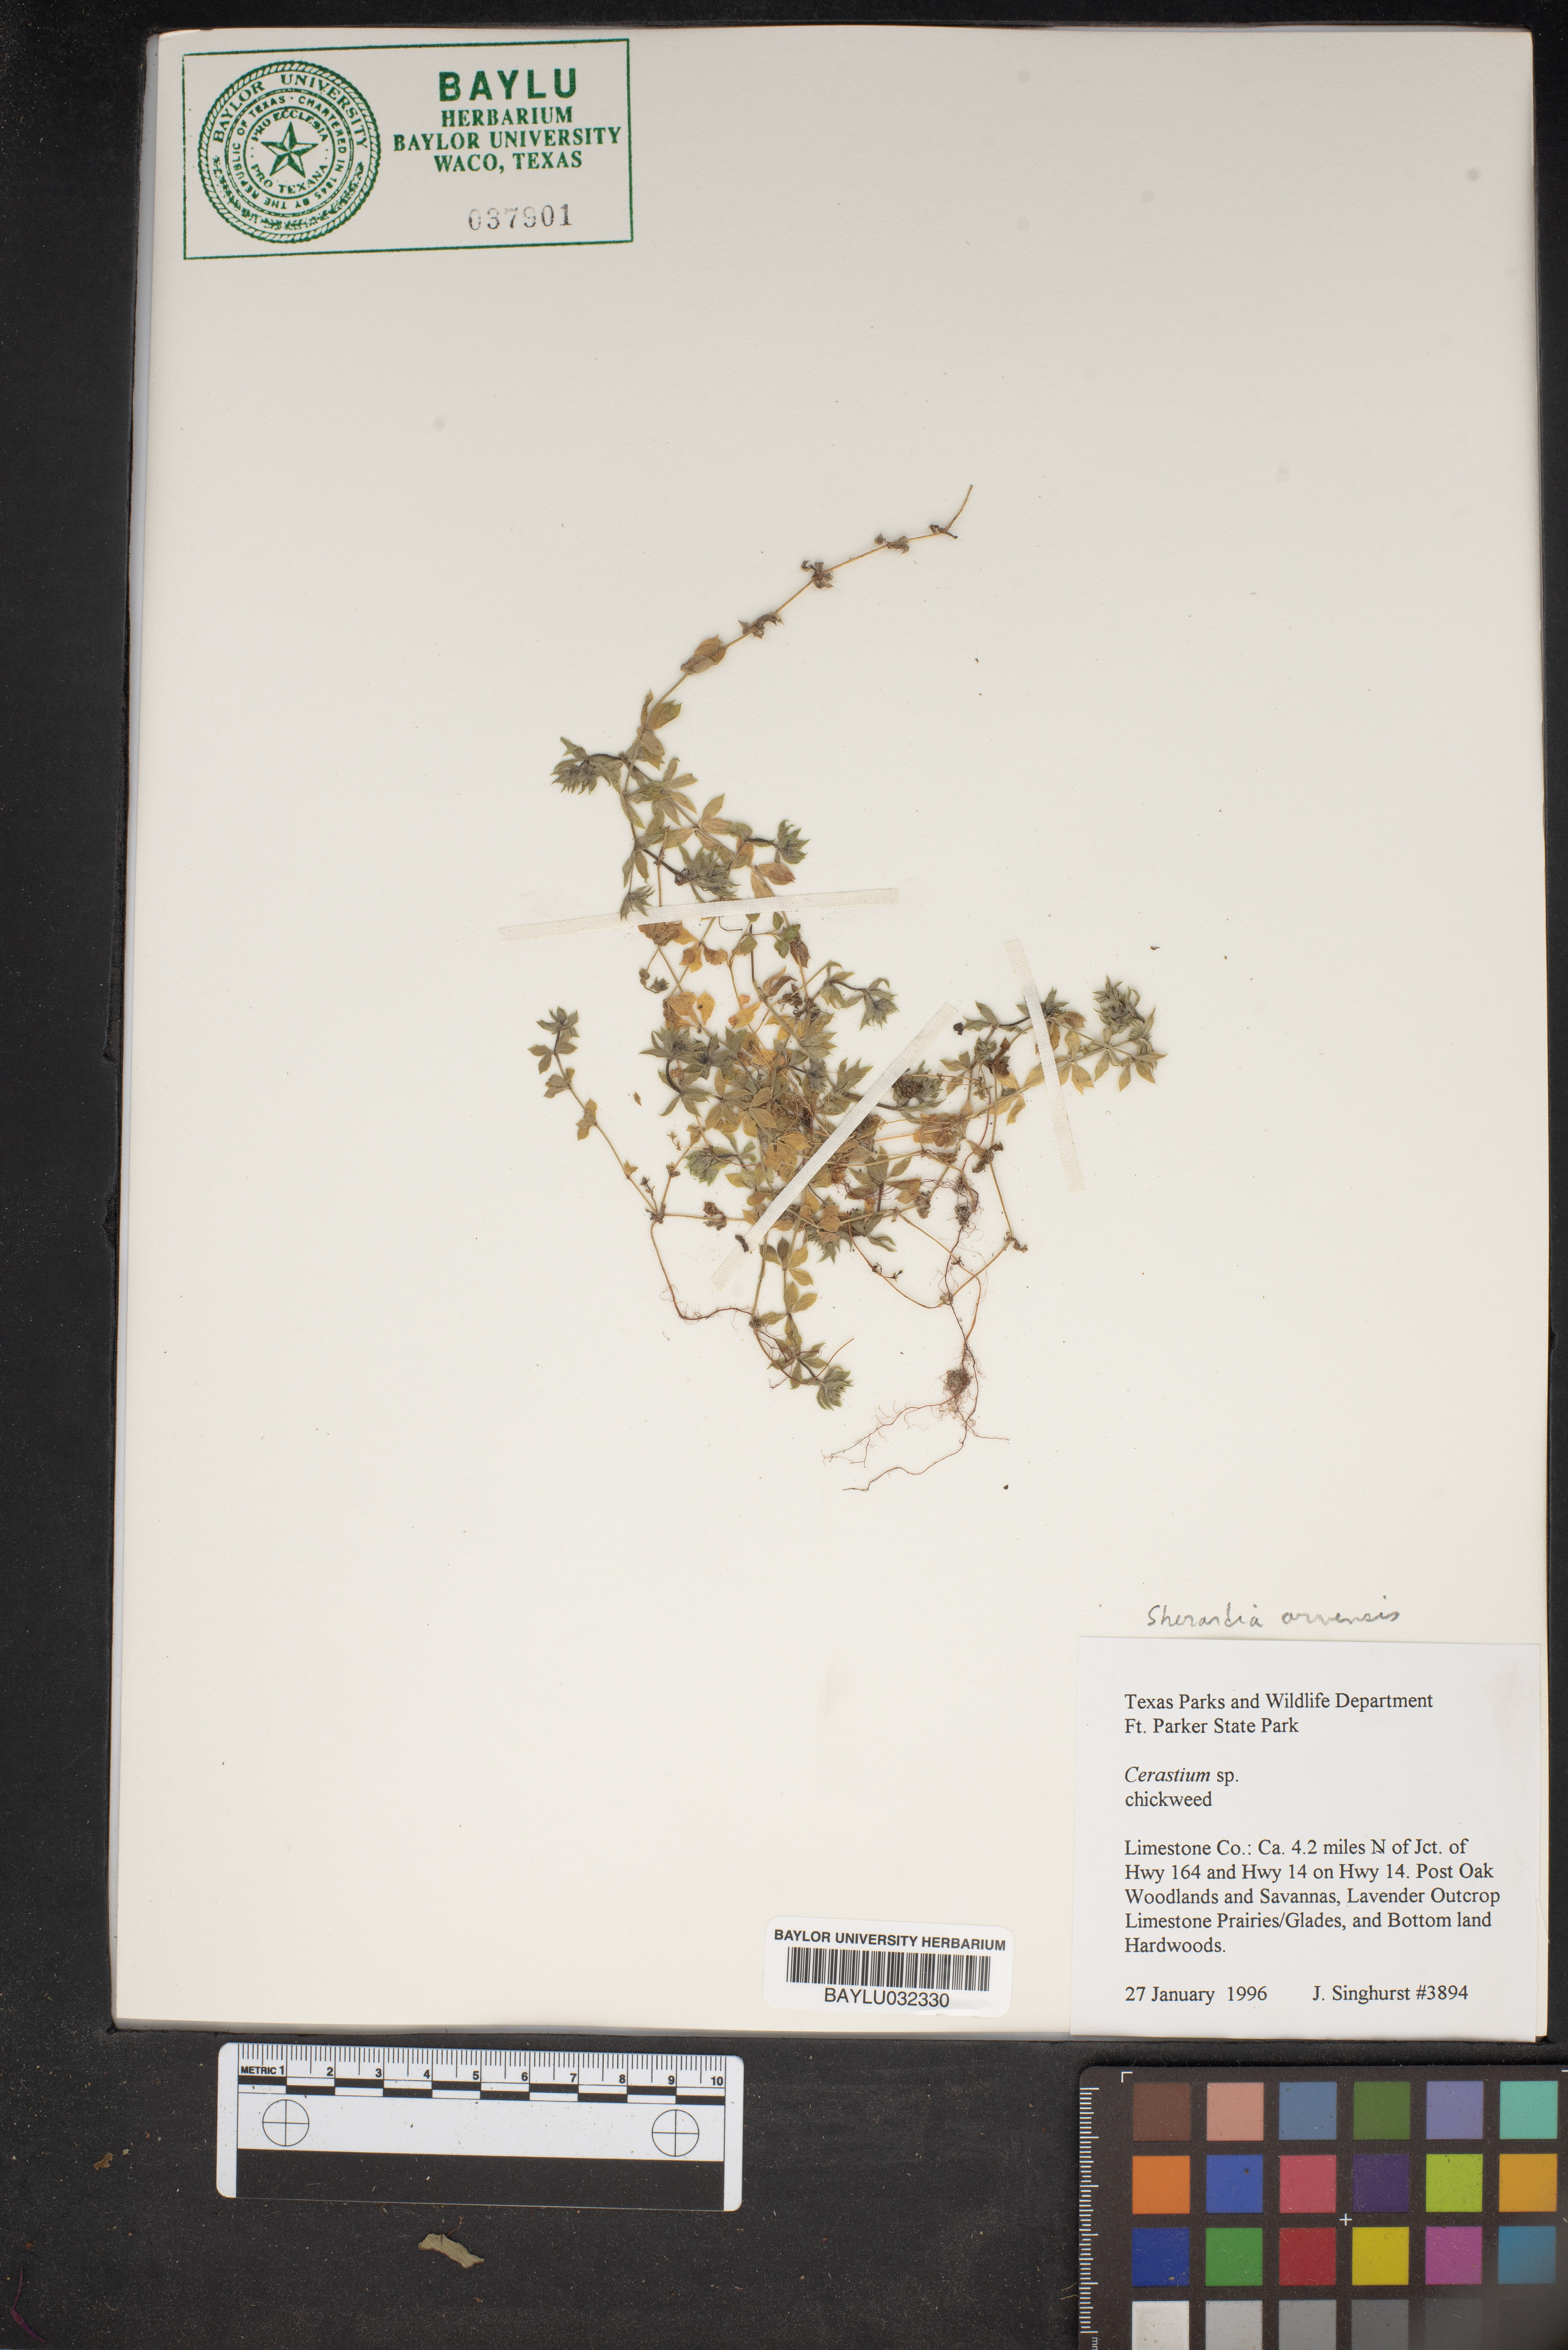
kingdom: Plantae
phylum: Tracheophyta
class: Magnoliopsida
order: Gentianales
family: Rubiaceae
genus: Sherardia
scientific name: Sherardia arvensis
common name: Field madder
